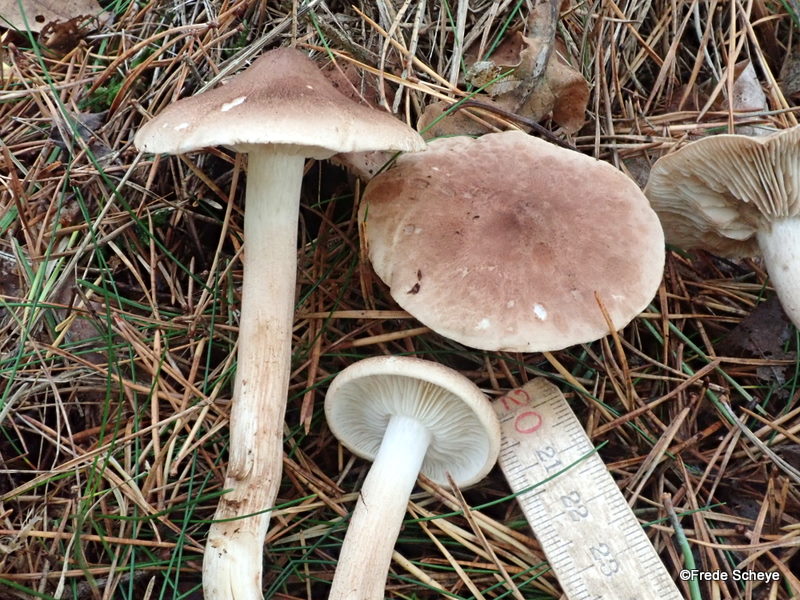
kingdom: Fungi
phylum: Basidiomycota
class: Agaricomycetes
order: Agaricales
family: Tricholomataceae
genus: Tricholoma
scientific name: Tricholoma imbricatum
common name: skællet ridderhat
